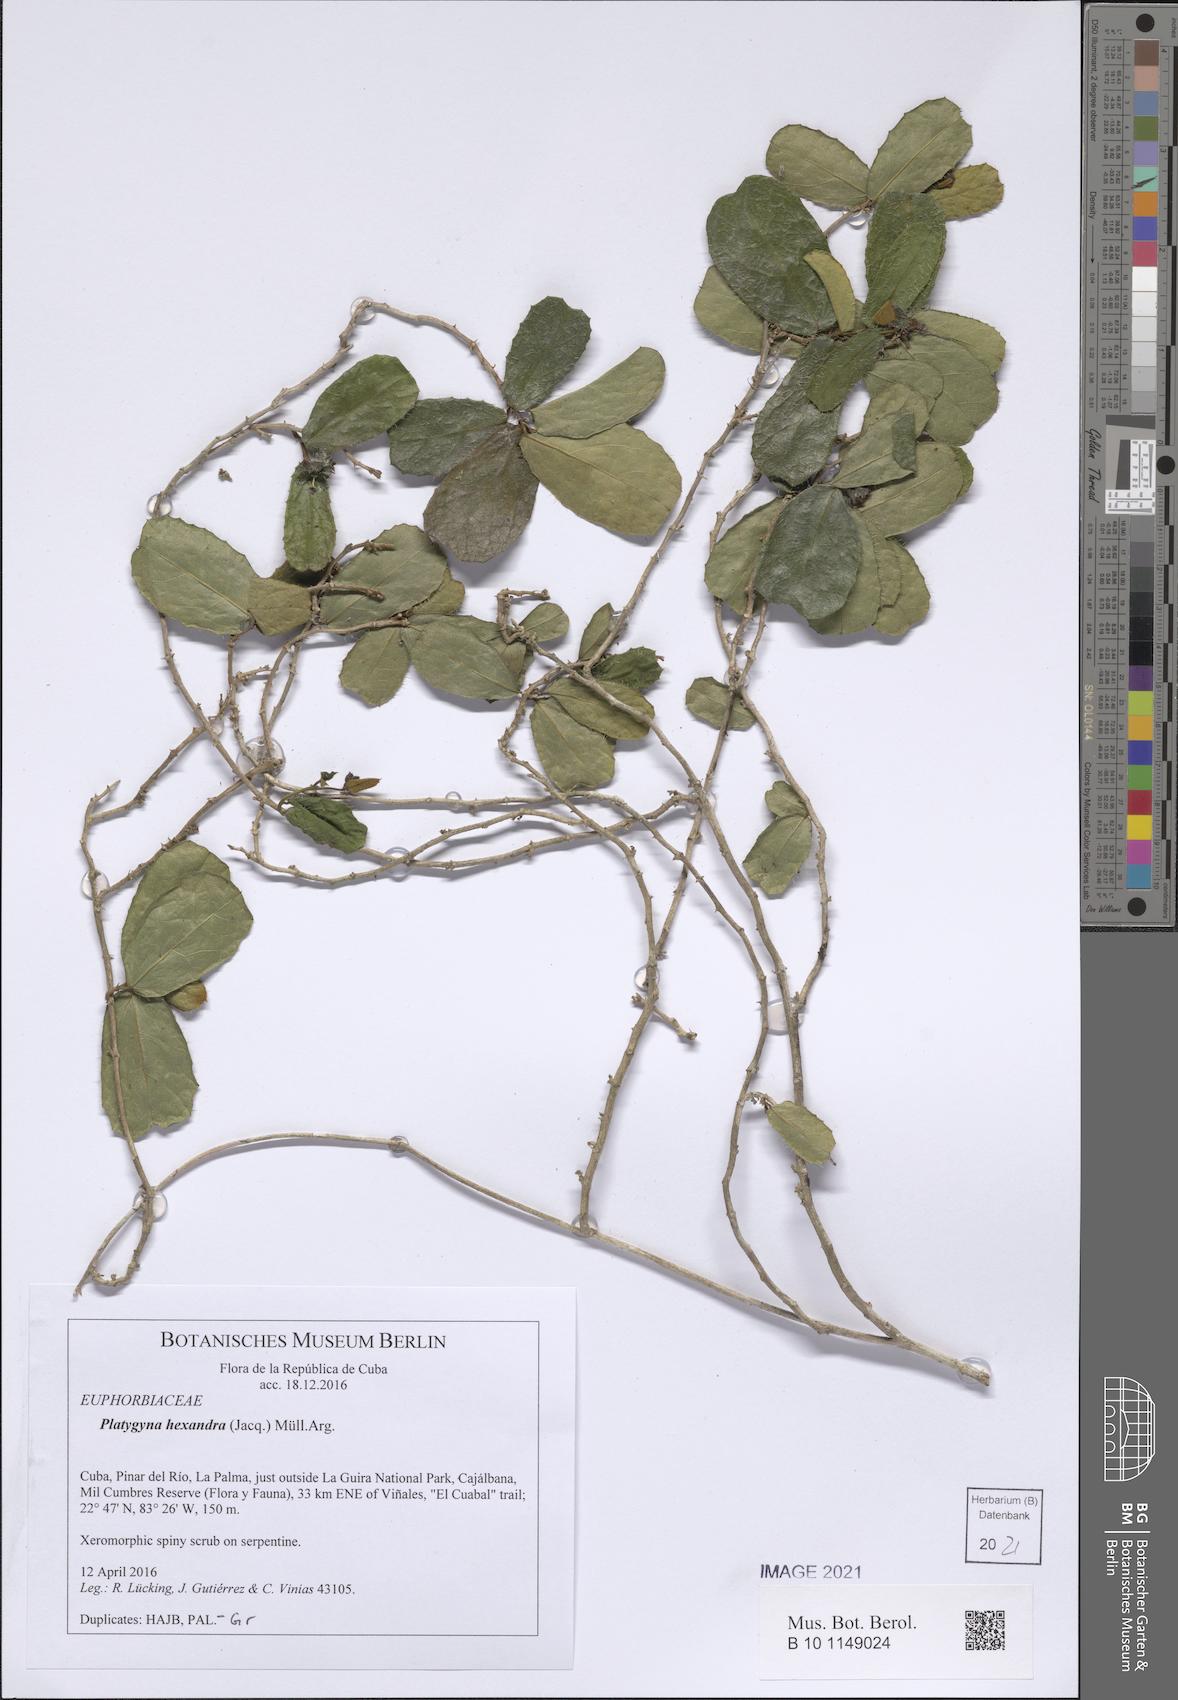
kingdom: Plantae
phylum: Tracheophyta
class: Magnoliopsida
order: Malpighiales
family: Euphorbiaceae
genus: Platygyna
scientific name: Platygyna hexandra
